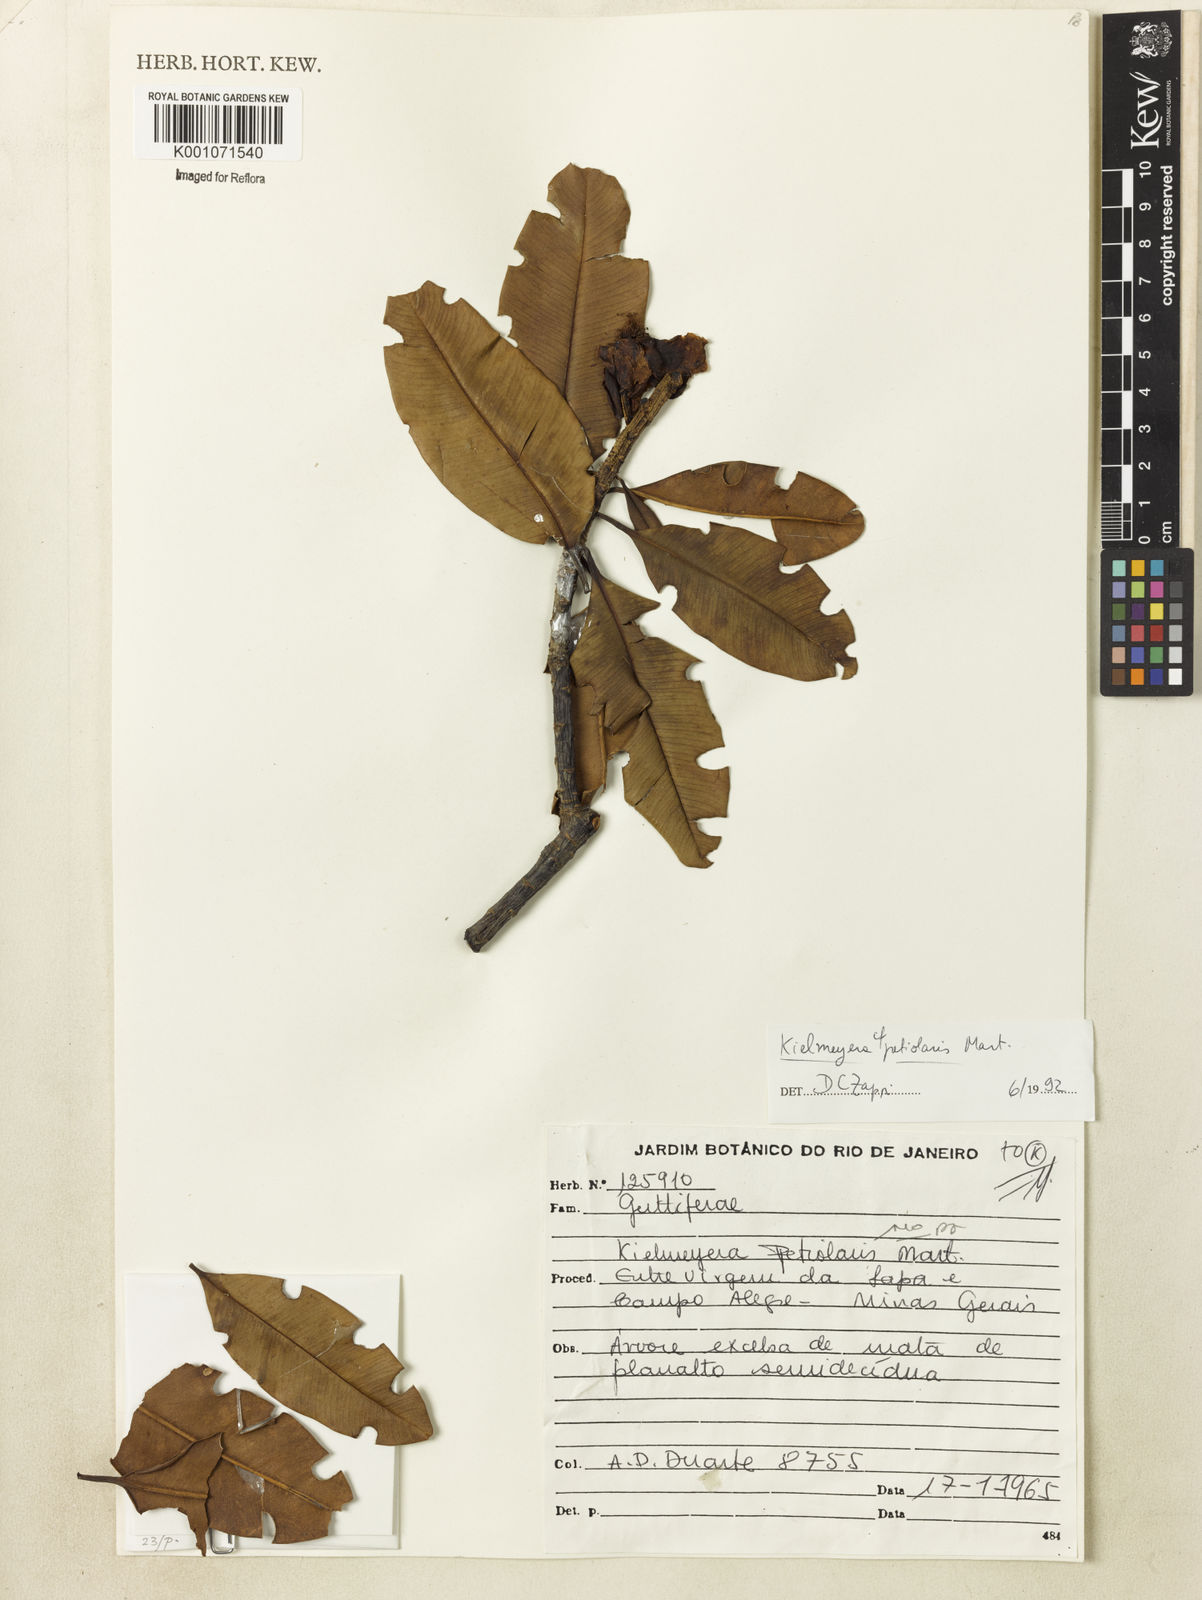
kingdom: Plantae
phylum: Tracheophyta
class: Magnoliopsida
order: Malpighiales
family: Calophyllaceae
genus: Kielmeyera
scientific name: Kielmeyera petiolaris
